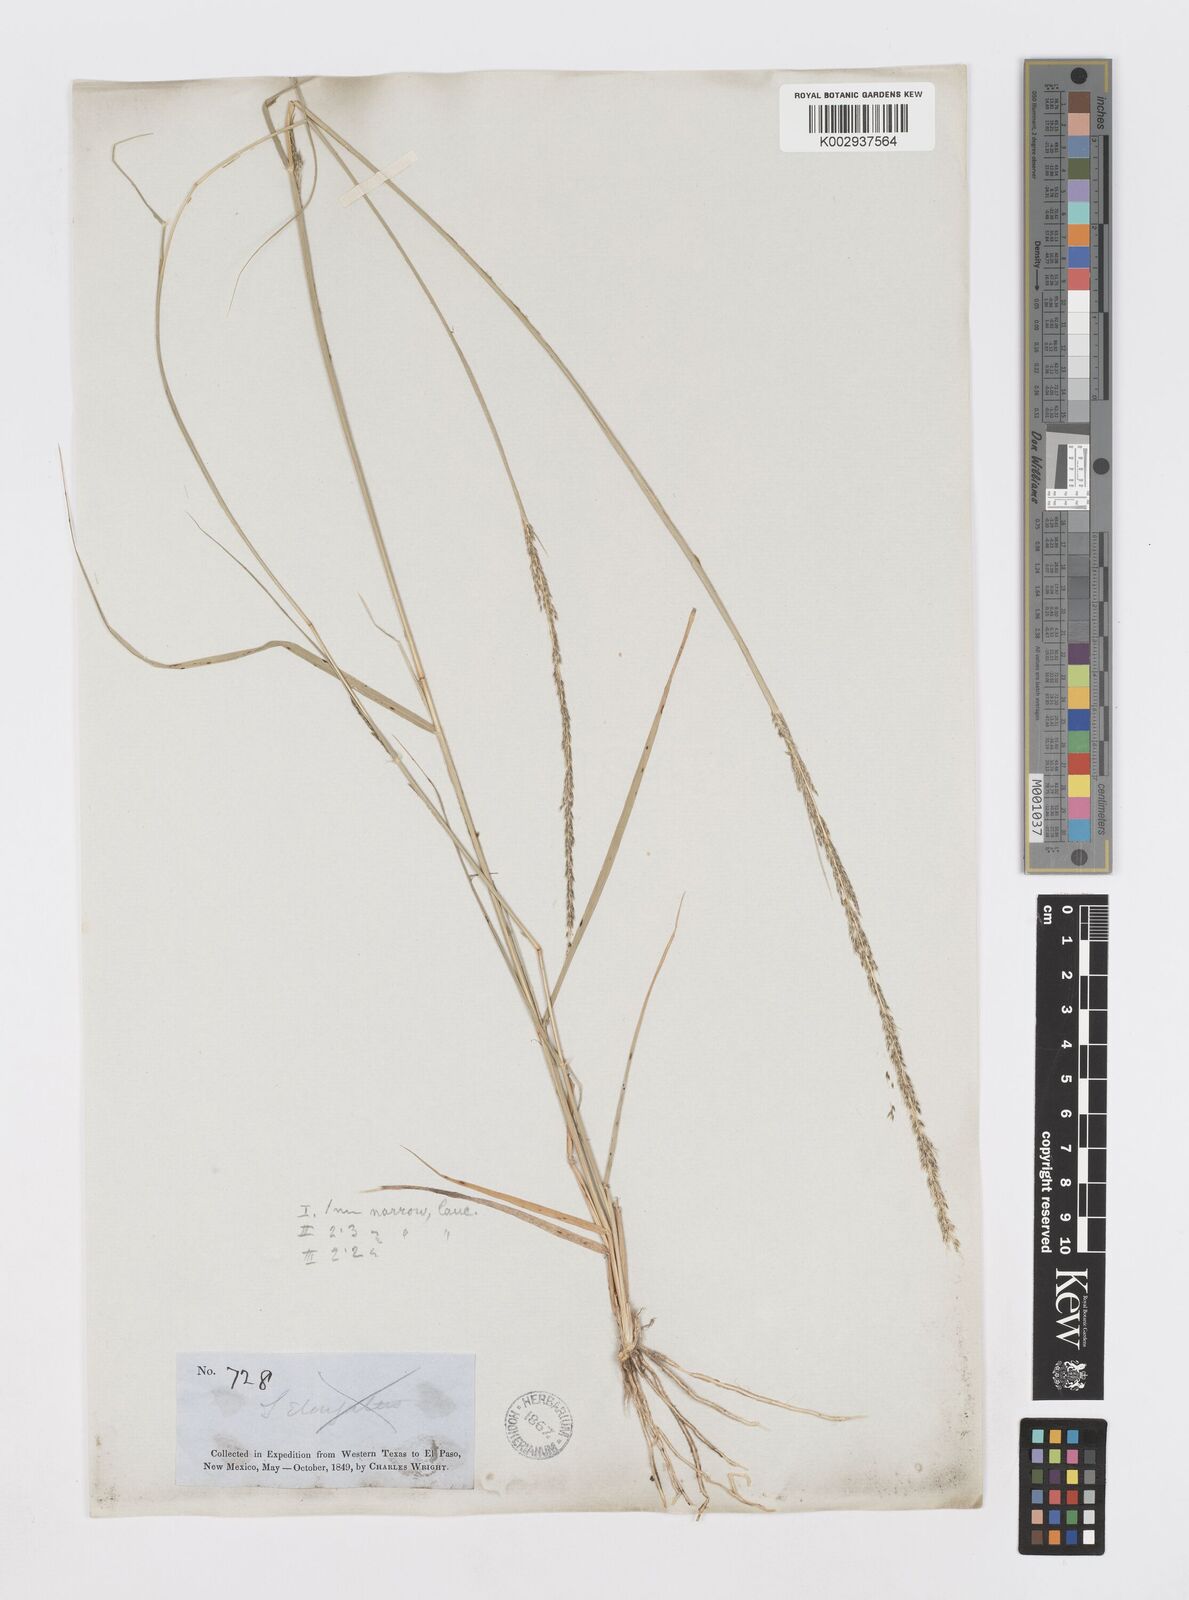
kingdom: Plantae
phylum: Tracheophyta
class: Liliopsida
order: Poales
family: Poaceae
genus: Sporobolus
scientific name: Sporobolus
